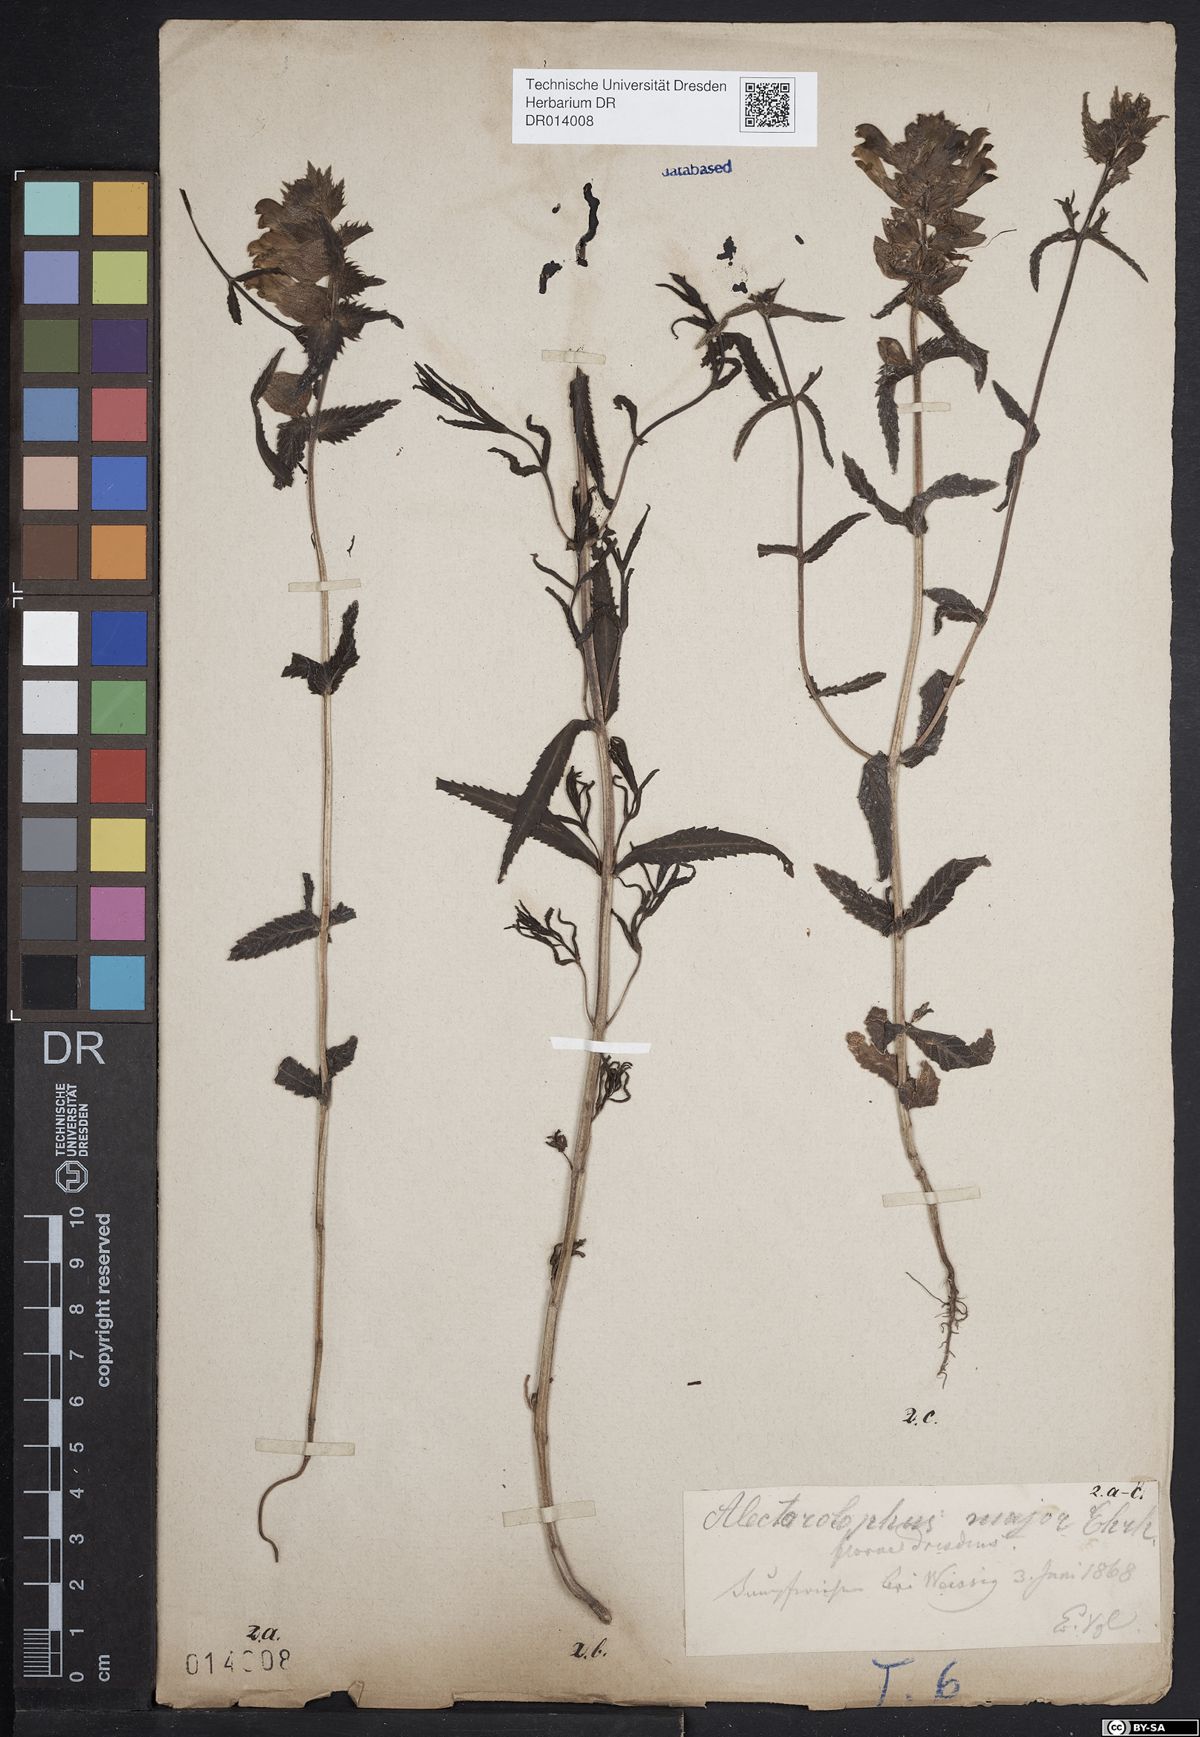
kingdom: Plantae
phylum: Tracheophyta
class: Magnoliopsida
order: Lamiales
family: Orobanchaceae
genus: Rhinanthus
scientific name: Rhinanthus serotinus
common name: Late-flowering yellow rattle
